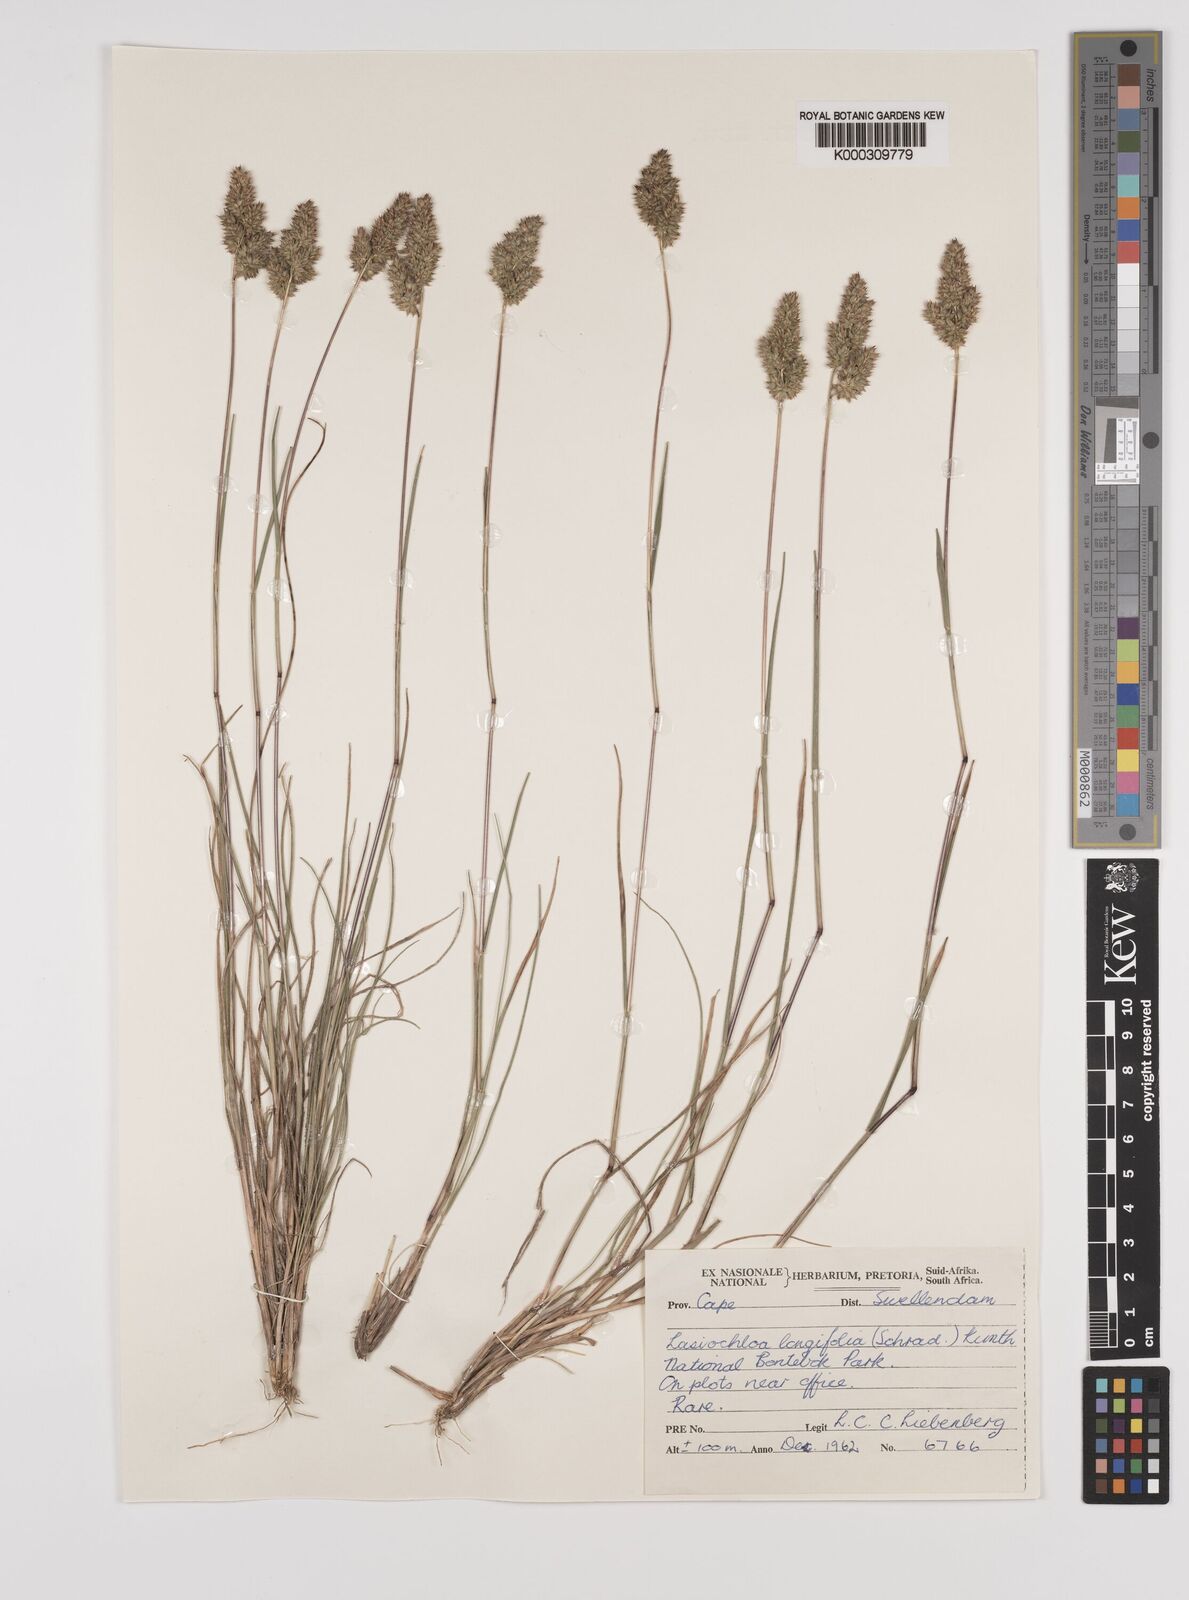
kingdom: Plantae
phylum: Tracheophyta
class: Liliopsida
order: Poales
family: Poaceae
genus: Tribolium
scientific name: Tribolium hispidum
